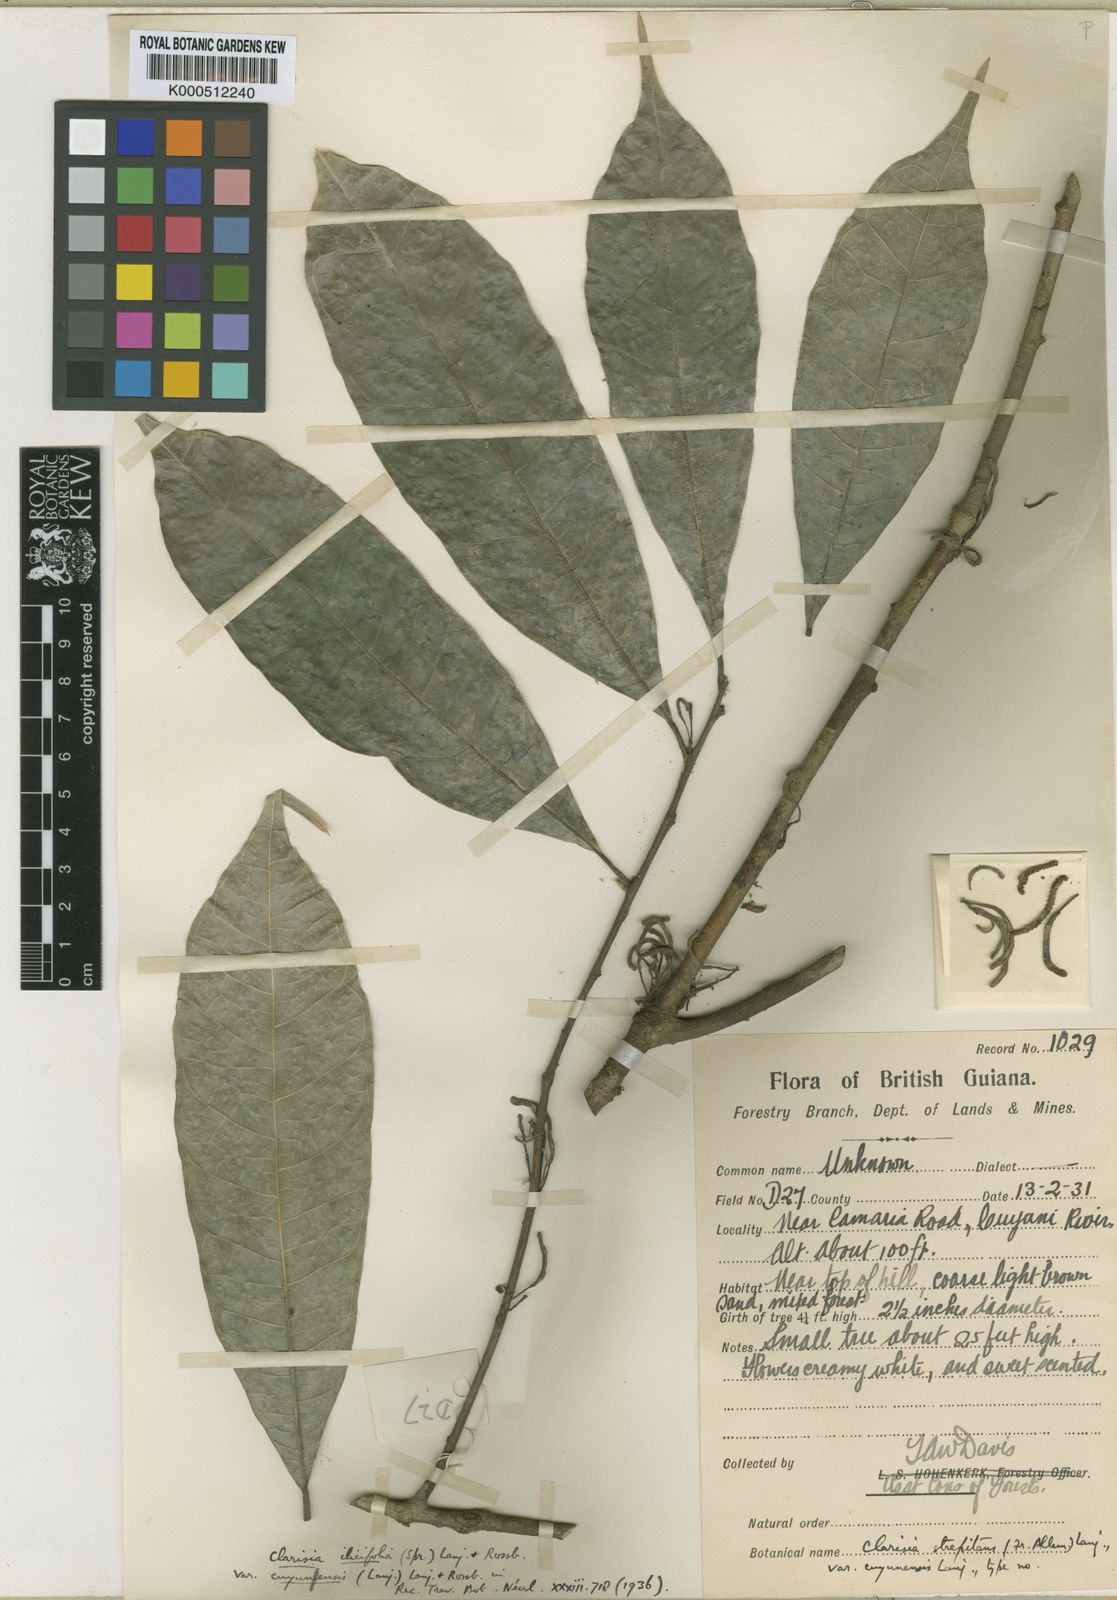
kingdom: Plantae
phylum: Tracheophyta
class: Magnoliopsida
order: Rosales
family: Moraceae
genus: Clarisia
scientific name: Clarisia ilicifolia
